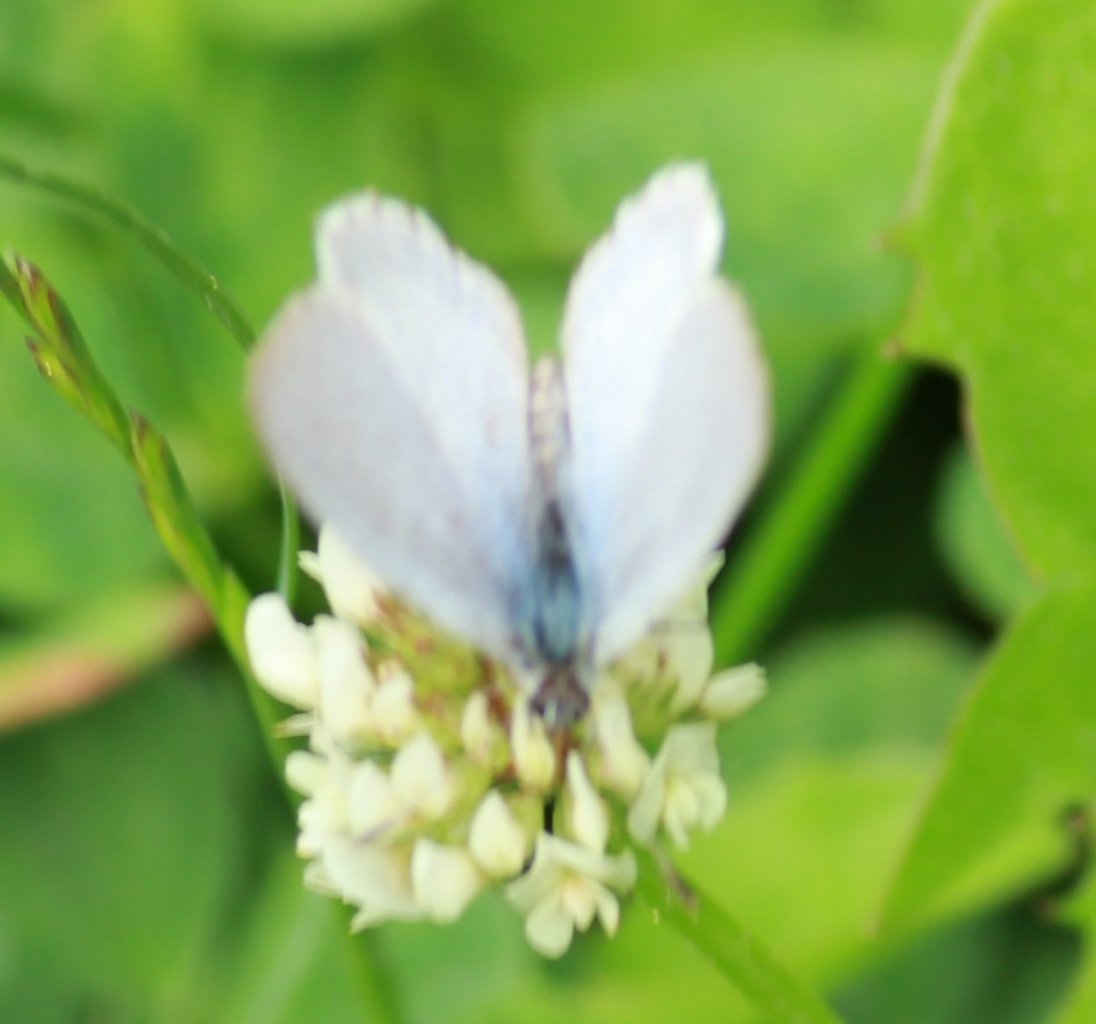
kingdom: Animalia
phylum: Arthropoda
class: Insecta
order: Lepidoptera
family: Lycaenidae
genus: Celastrina
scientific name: Celastrina
